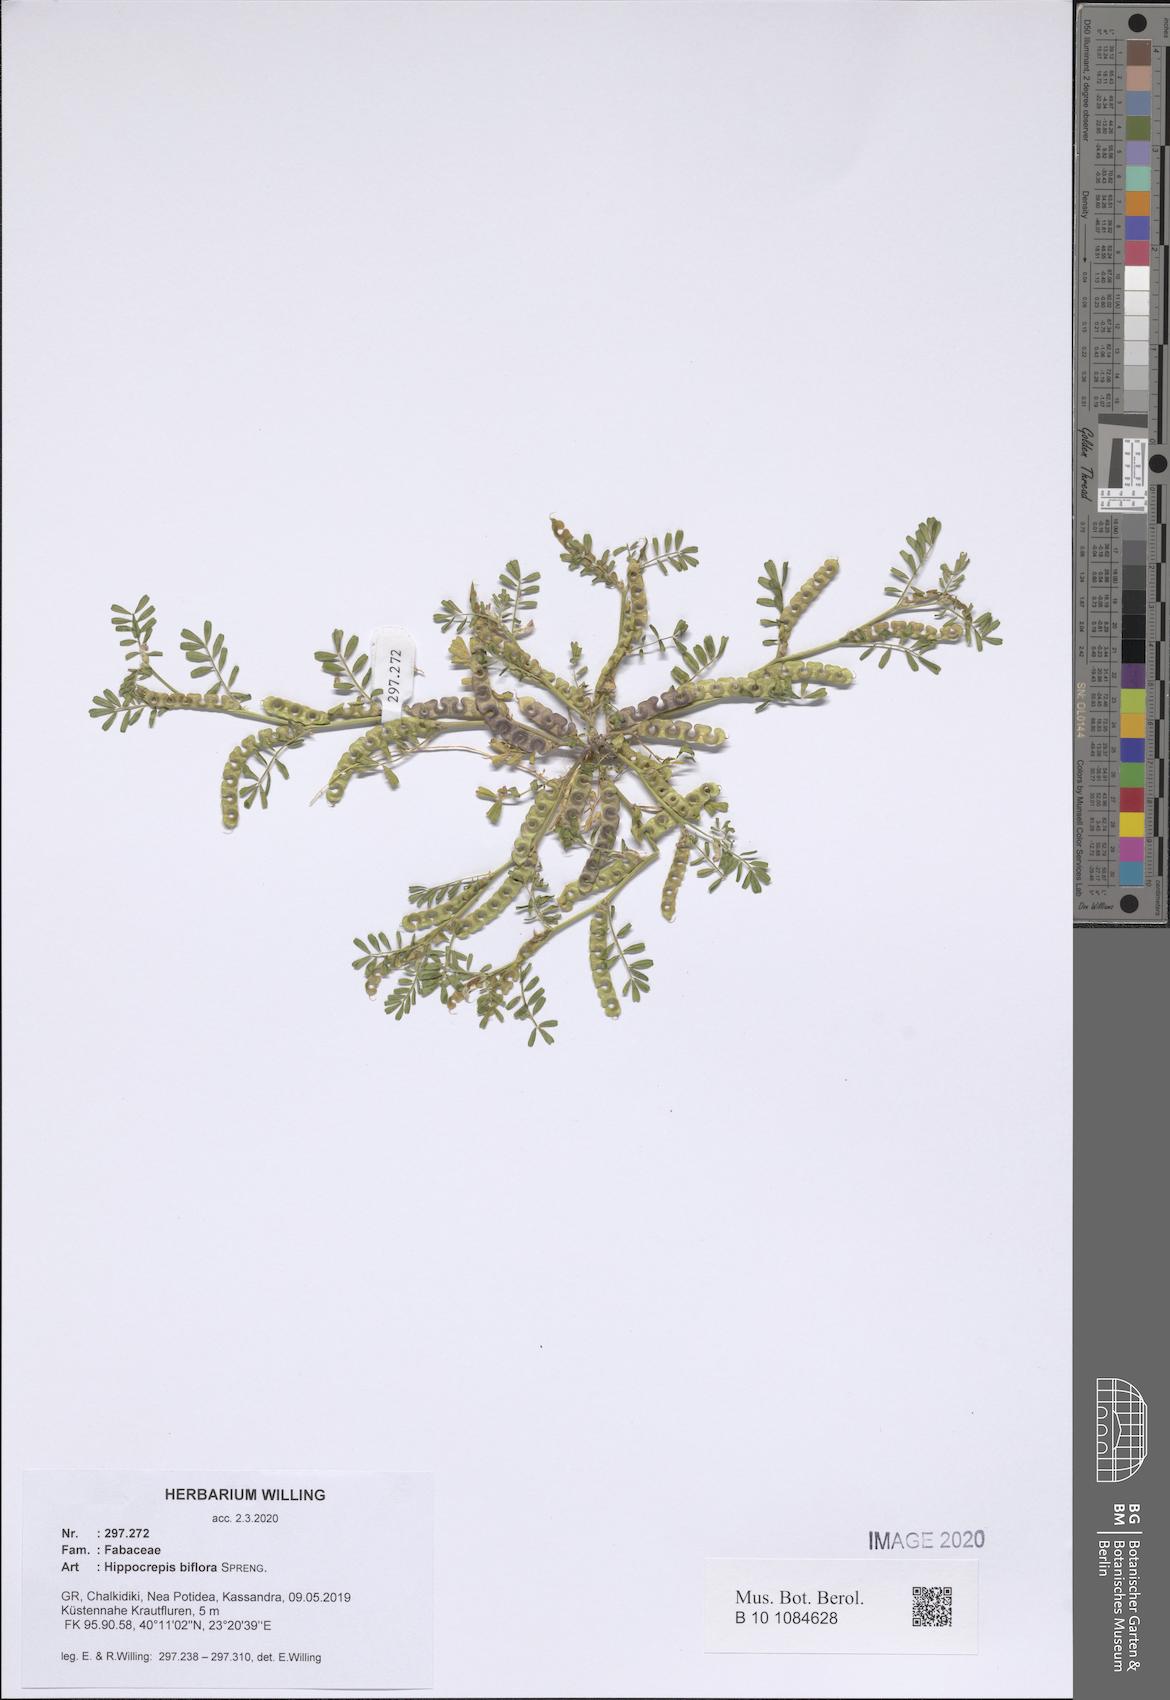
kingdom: Plantae
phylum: Tracheophyta
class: Magnoliopsida
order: Fabales
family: Fabaceae
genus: Hippocrepis
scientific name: Hippocrepis biflora
